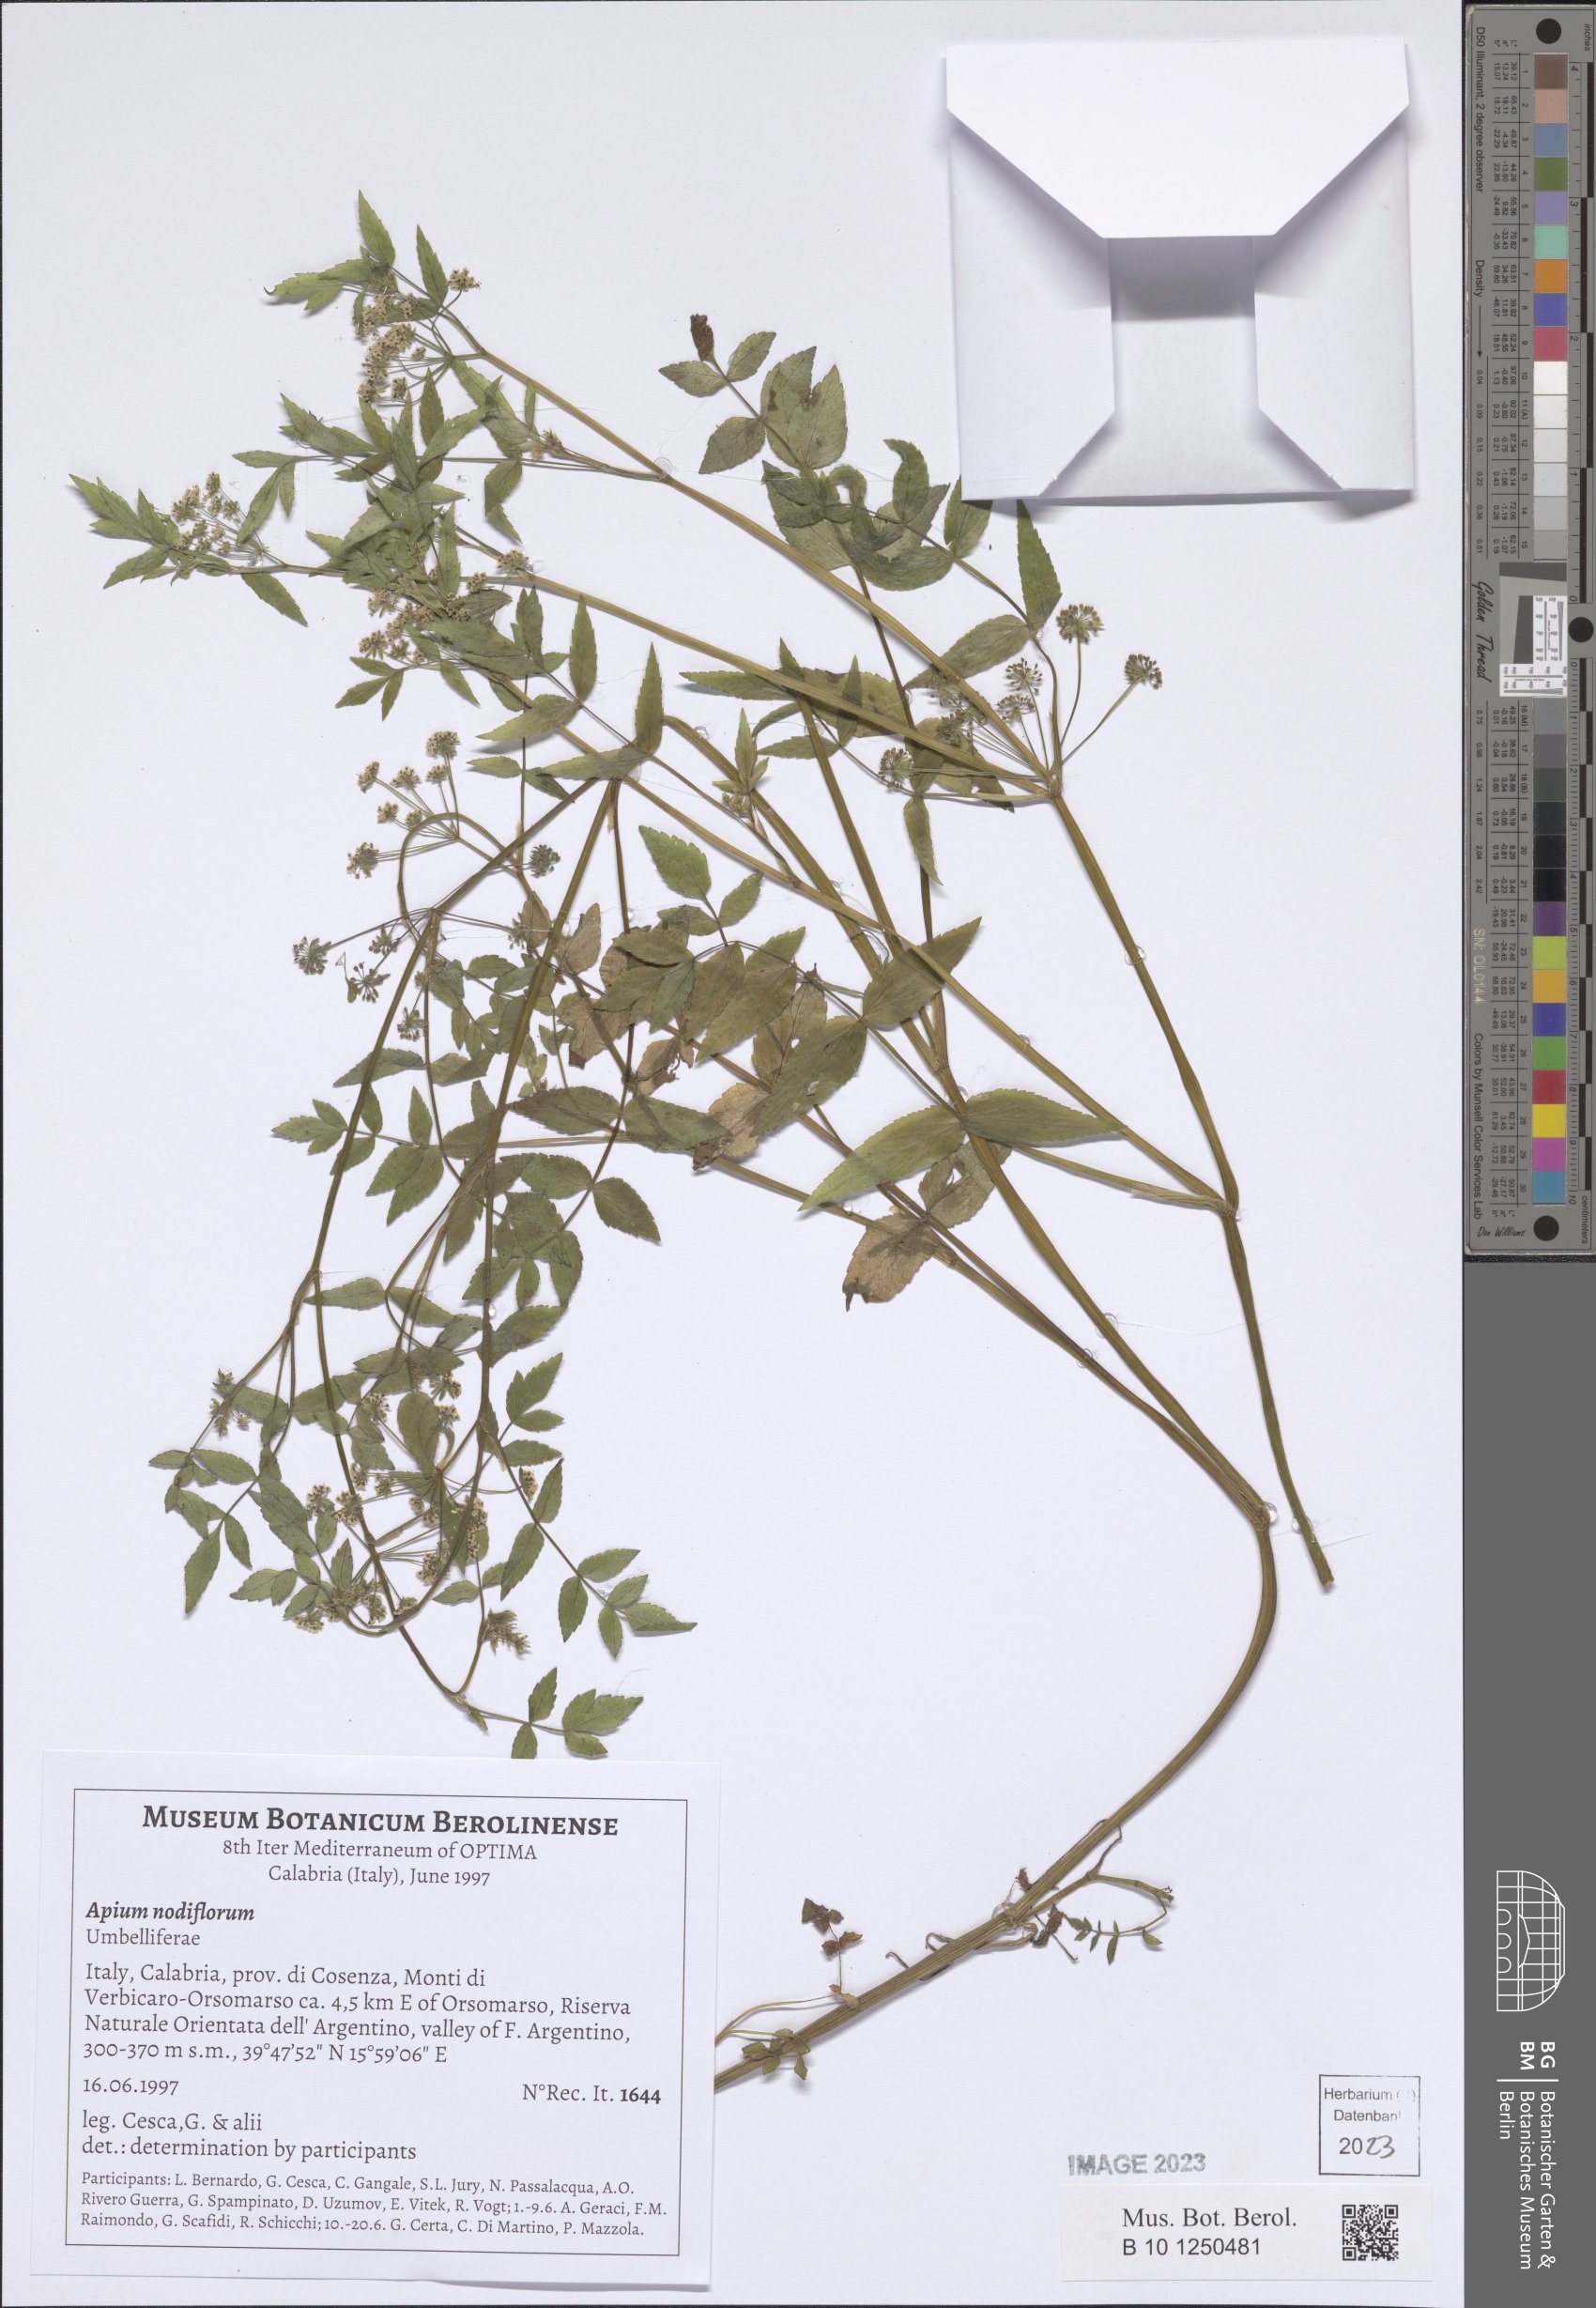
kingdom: Plantae
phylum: Tracheophyta
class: Magnoliopsida
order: Apiales
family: Apiaceae
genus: Helosciadium
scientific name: Helosciadium nodiflorum
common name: Fool's-watercress
